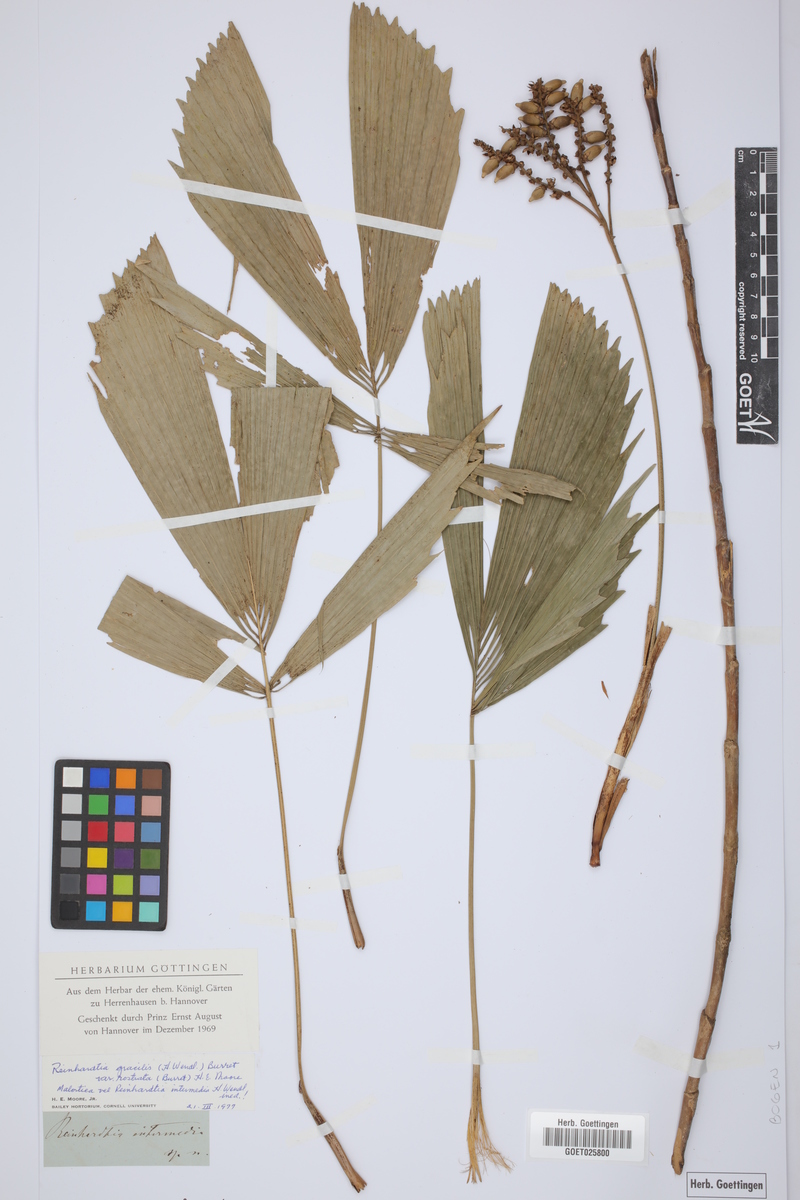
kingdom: Plantae
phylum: Tracheophyta
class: Liliopsida
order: Arecales
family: Arecaceae
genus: Reinhardtia
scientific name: Reinhardtia gracilis
